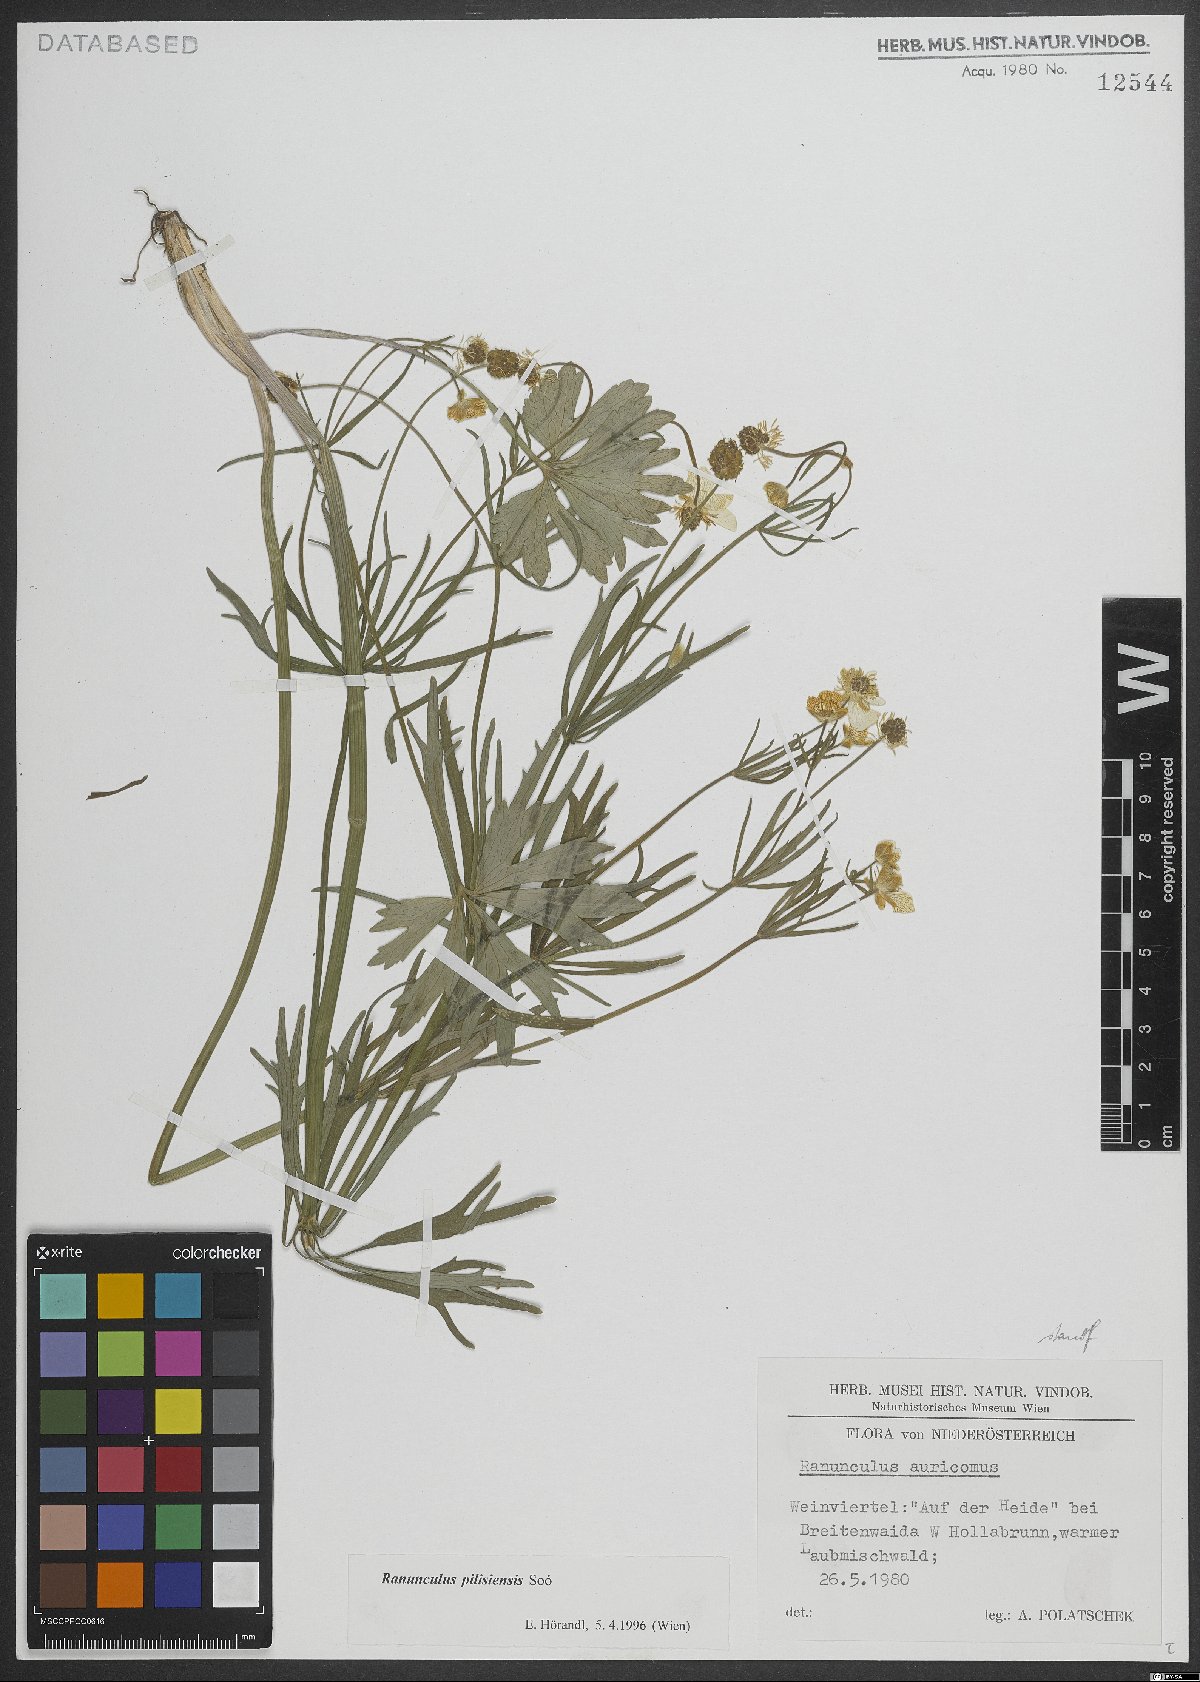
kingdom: Plantae
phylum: Tracheophyta
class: Magnoliopsida
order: Ranunculales
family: Ranunculaceae
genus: Ranunculus
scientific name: Ranunculus pilisiensis
